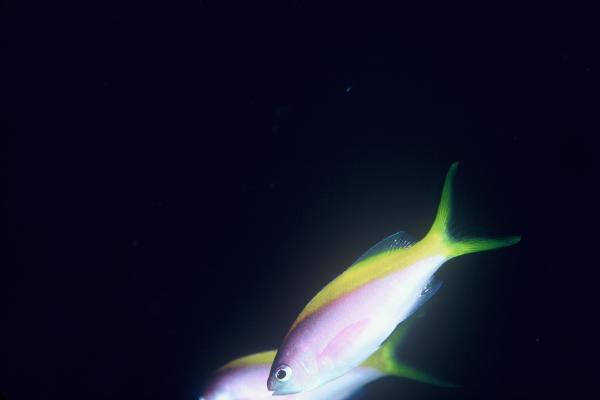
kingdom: Animalia
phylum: Chordata
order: Perciformes
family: Serranidae
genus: Pseudanthias
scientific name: Pseudanthias evansi
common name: Goldback anthias
